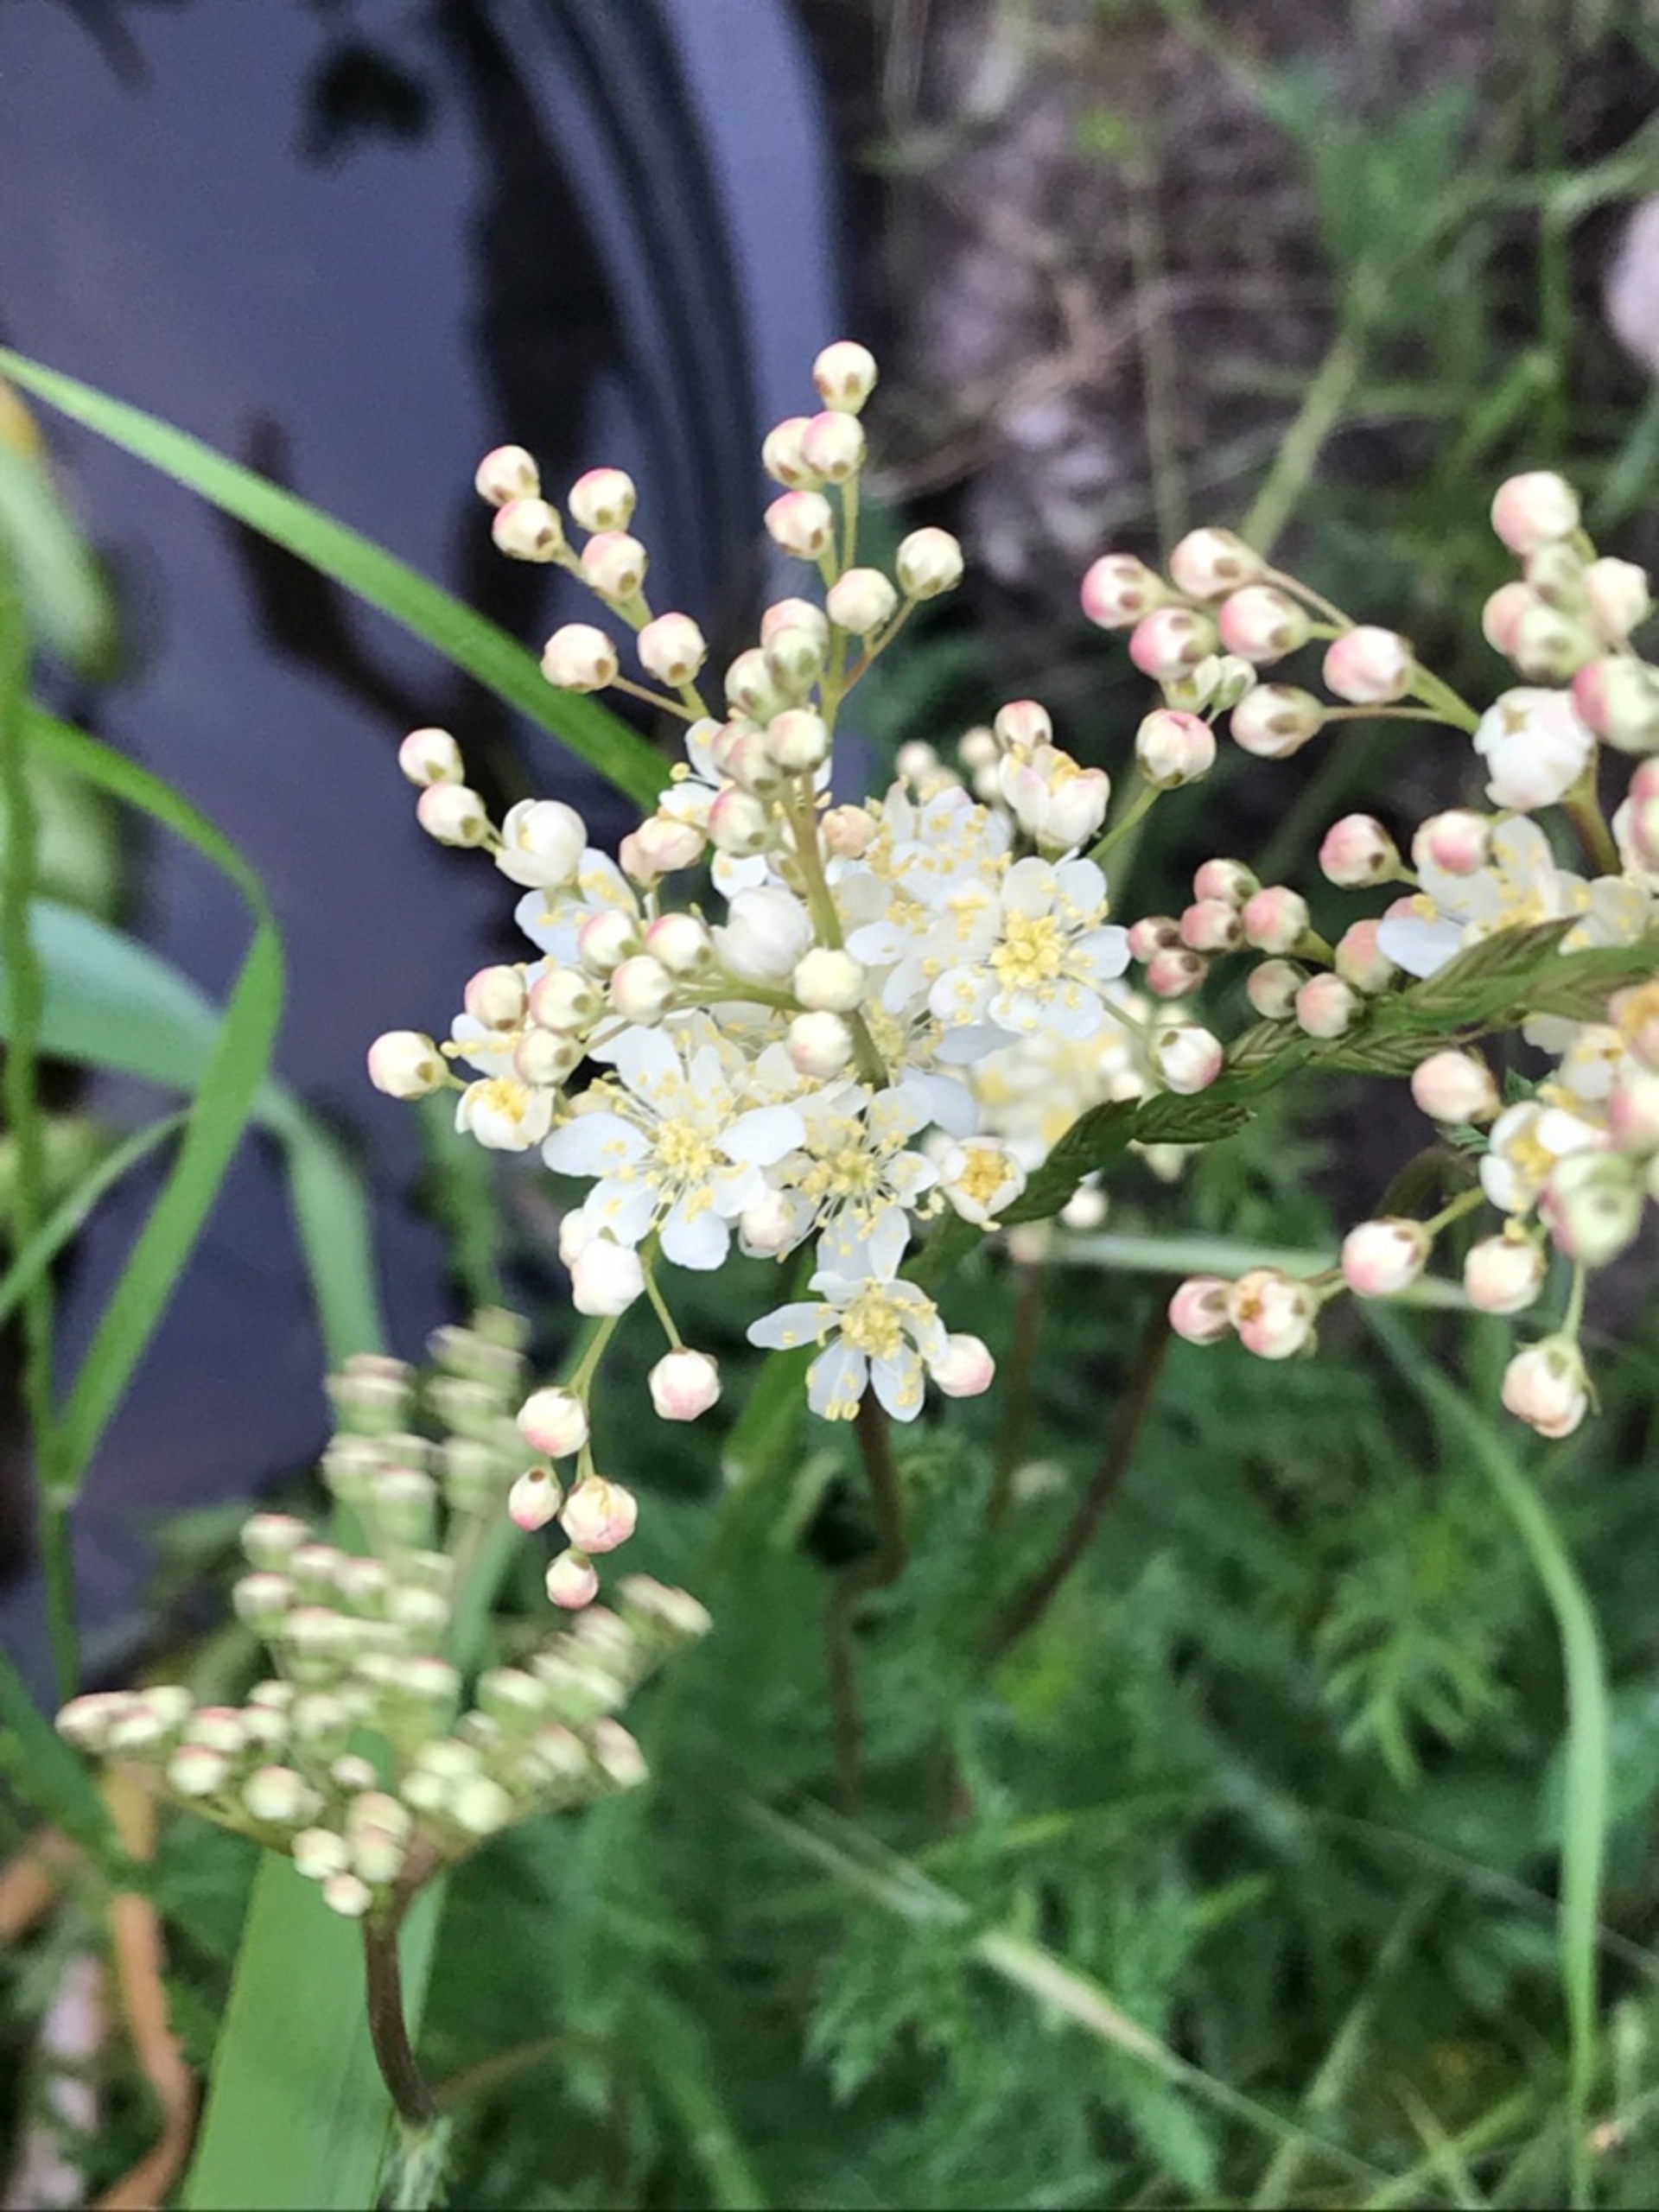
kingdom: Plantae
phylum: Tracheophyta
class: Magnoliopsida
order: Rosales
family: Rosaceae
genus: Filipendula
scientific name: Filipendula vulgaris
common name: Knoldet mjødurt
